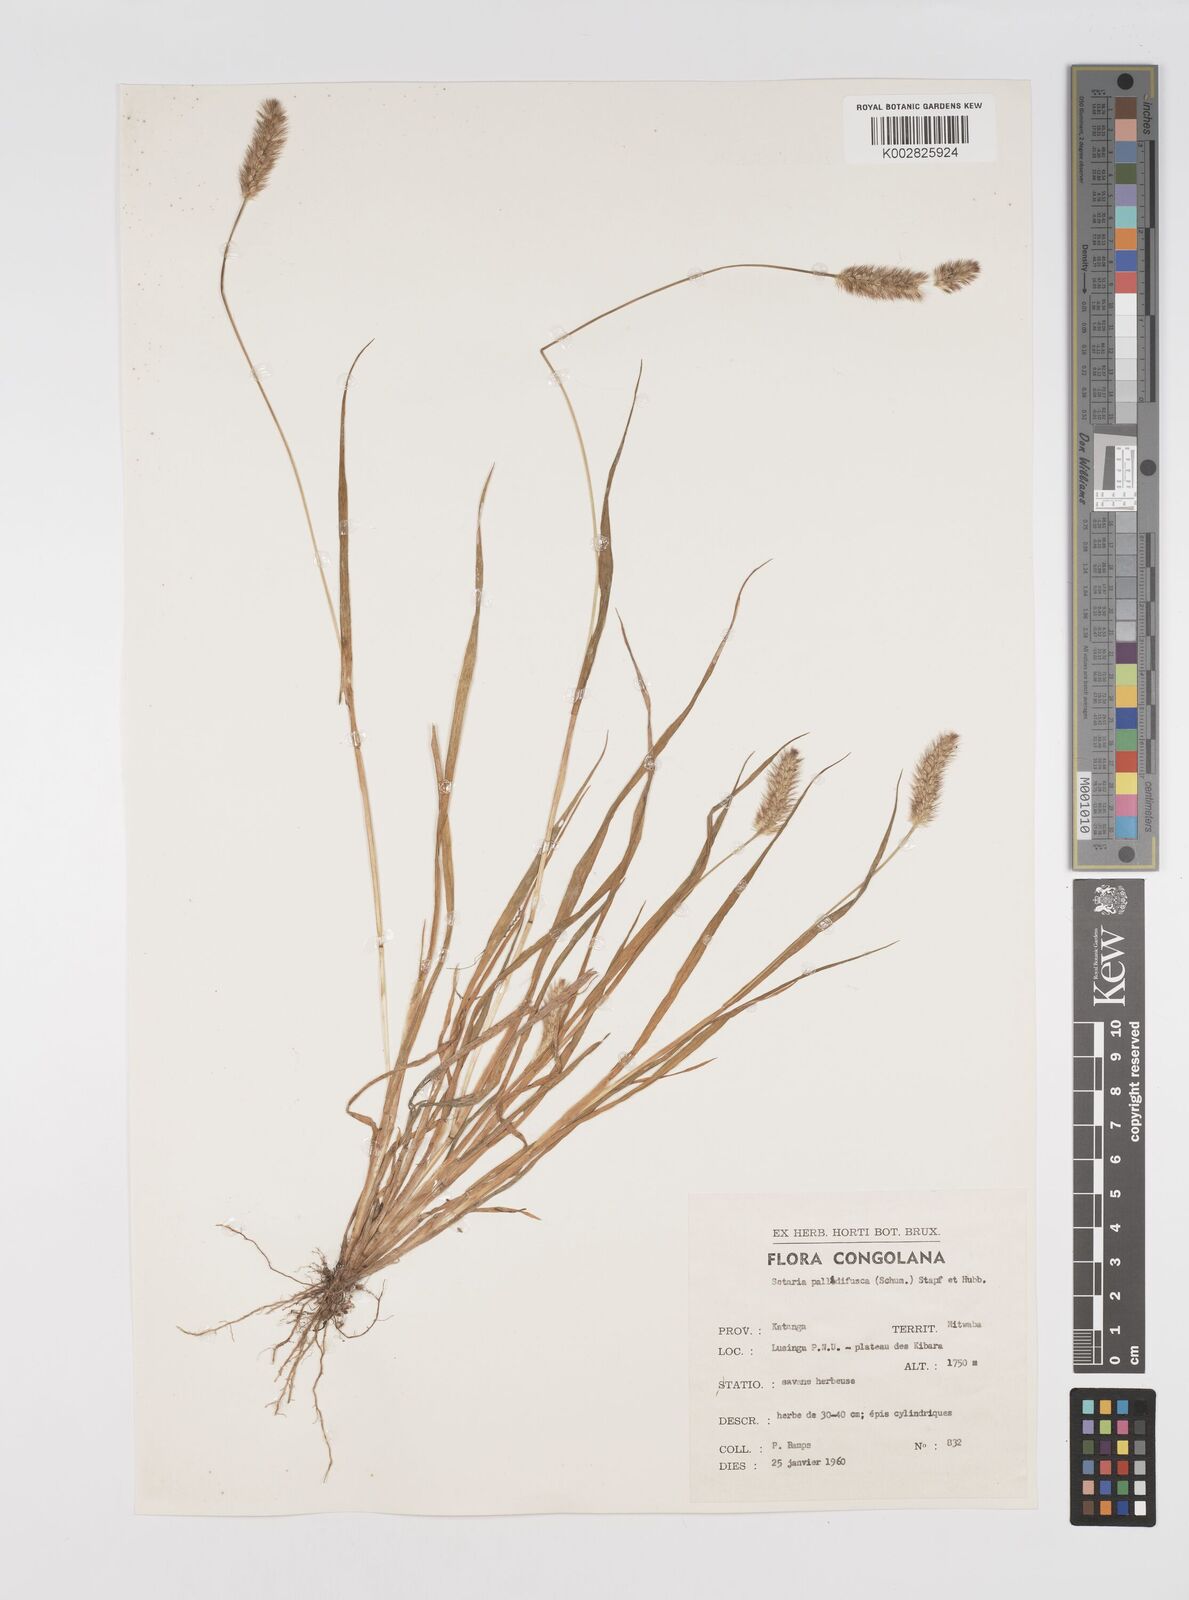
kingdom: Plantae
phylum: Tracheophyta
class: Liliopsida
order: Poales
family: Poaceae
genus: Setaria
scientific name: Setaria pumila
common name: Yellow bristle-grass
